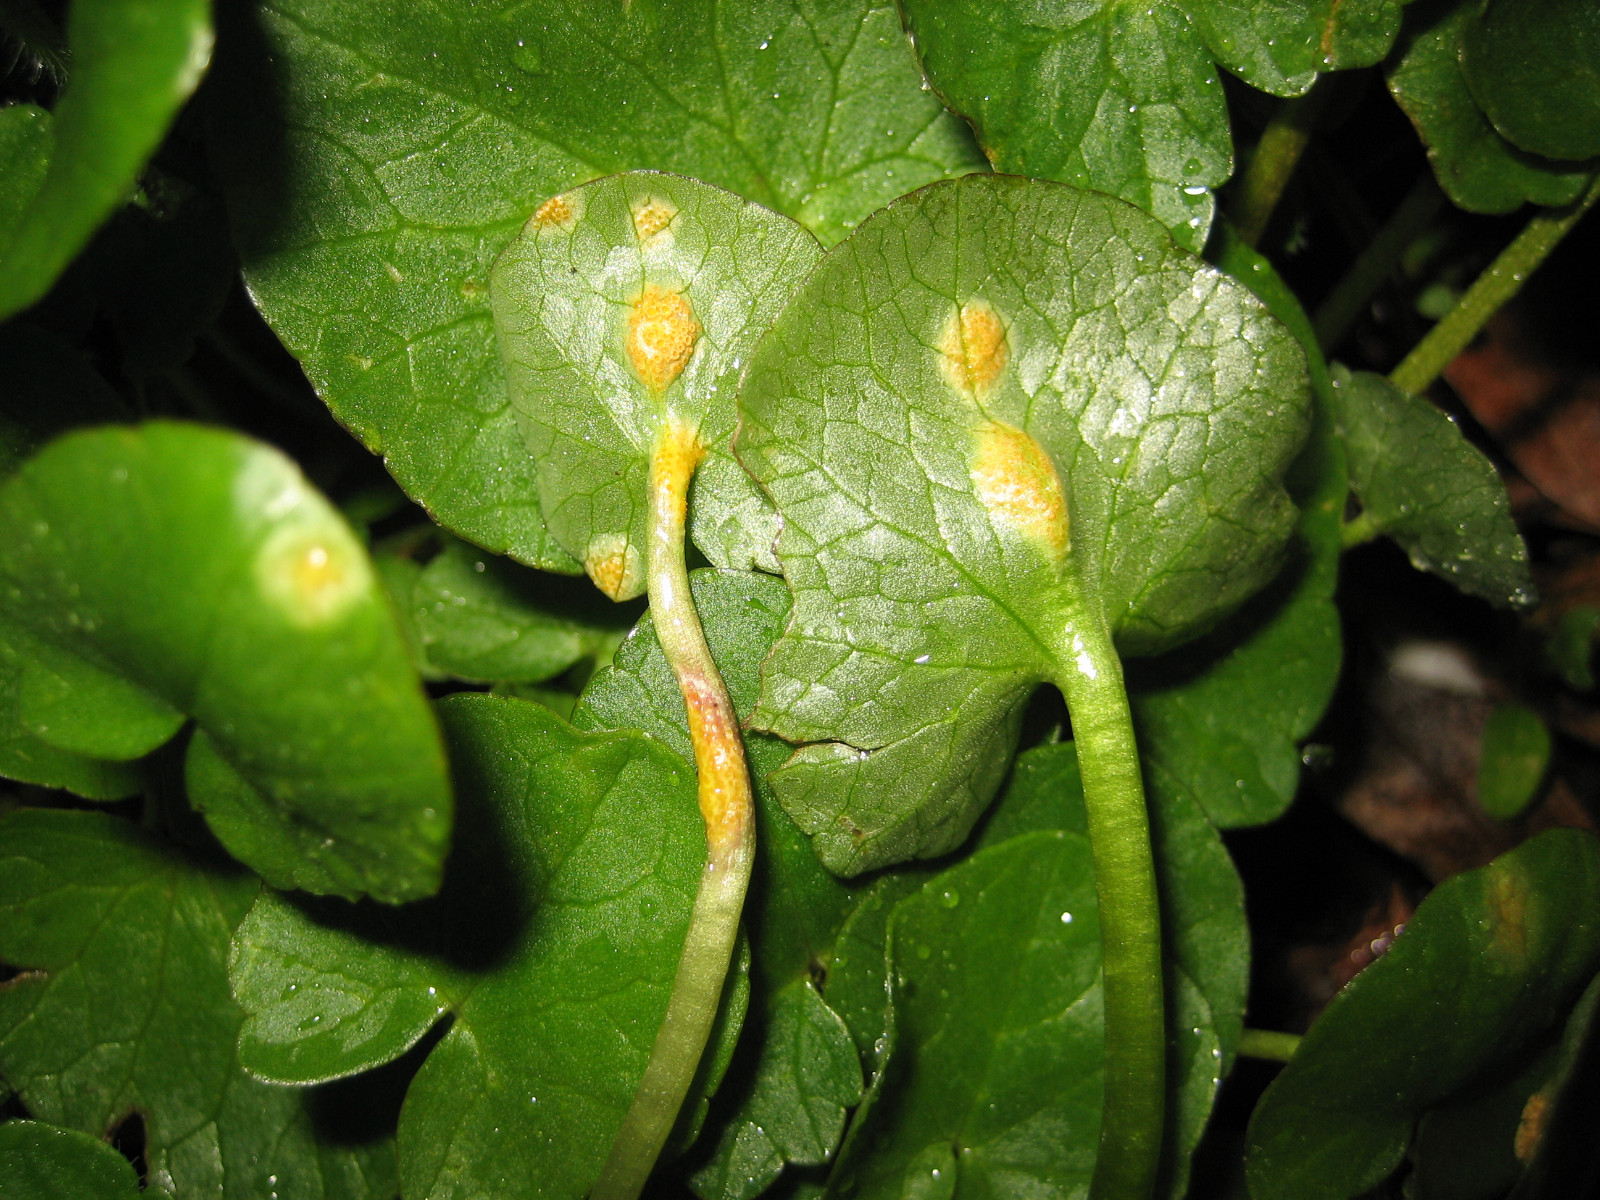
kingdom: Fungi
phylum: Basidiomycota
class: Pucciniomycetes
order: Pucciniales
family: Pucciniaceae
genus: Uromyces
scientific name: Uromyces dactylidis
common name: ranunkel-encellerust
